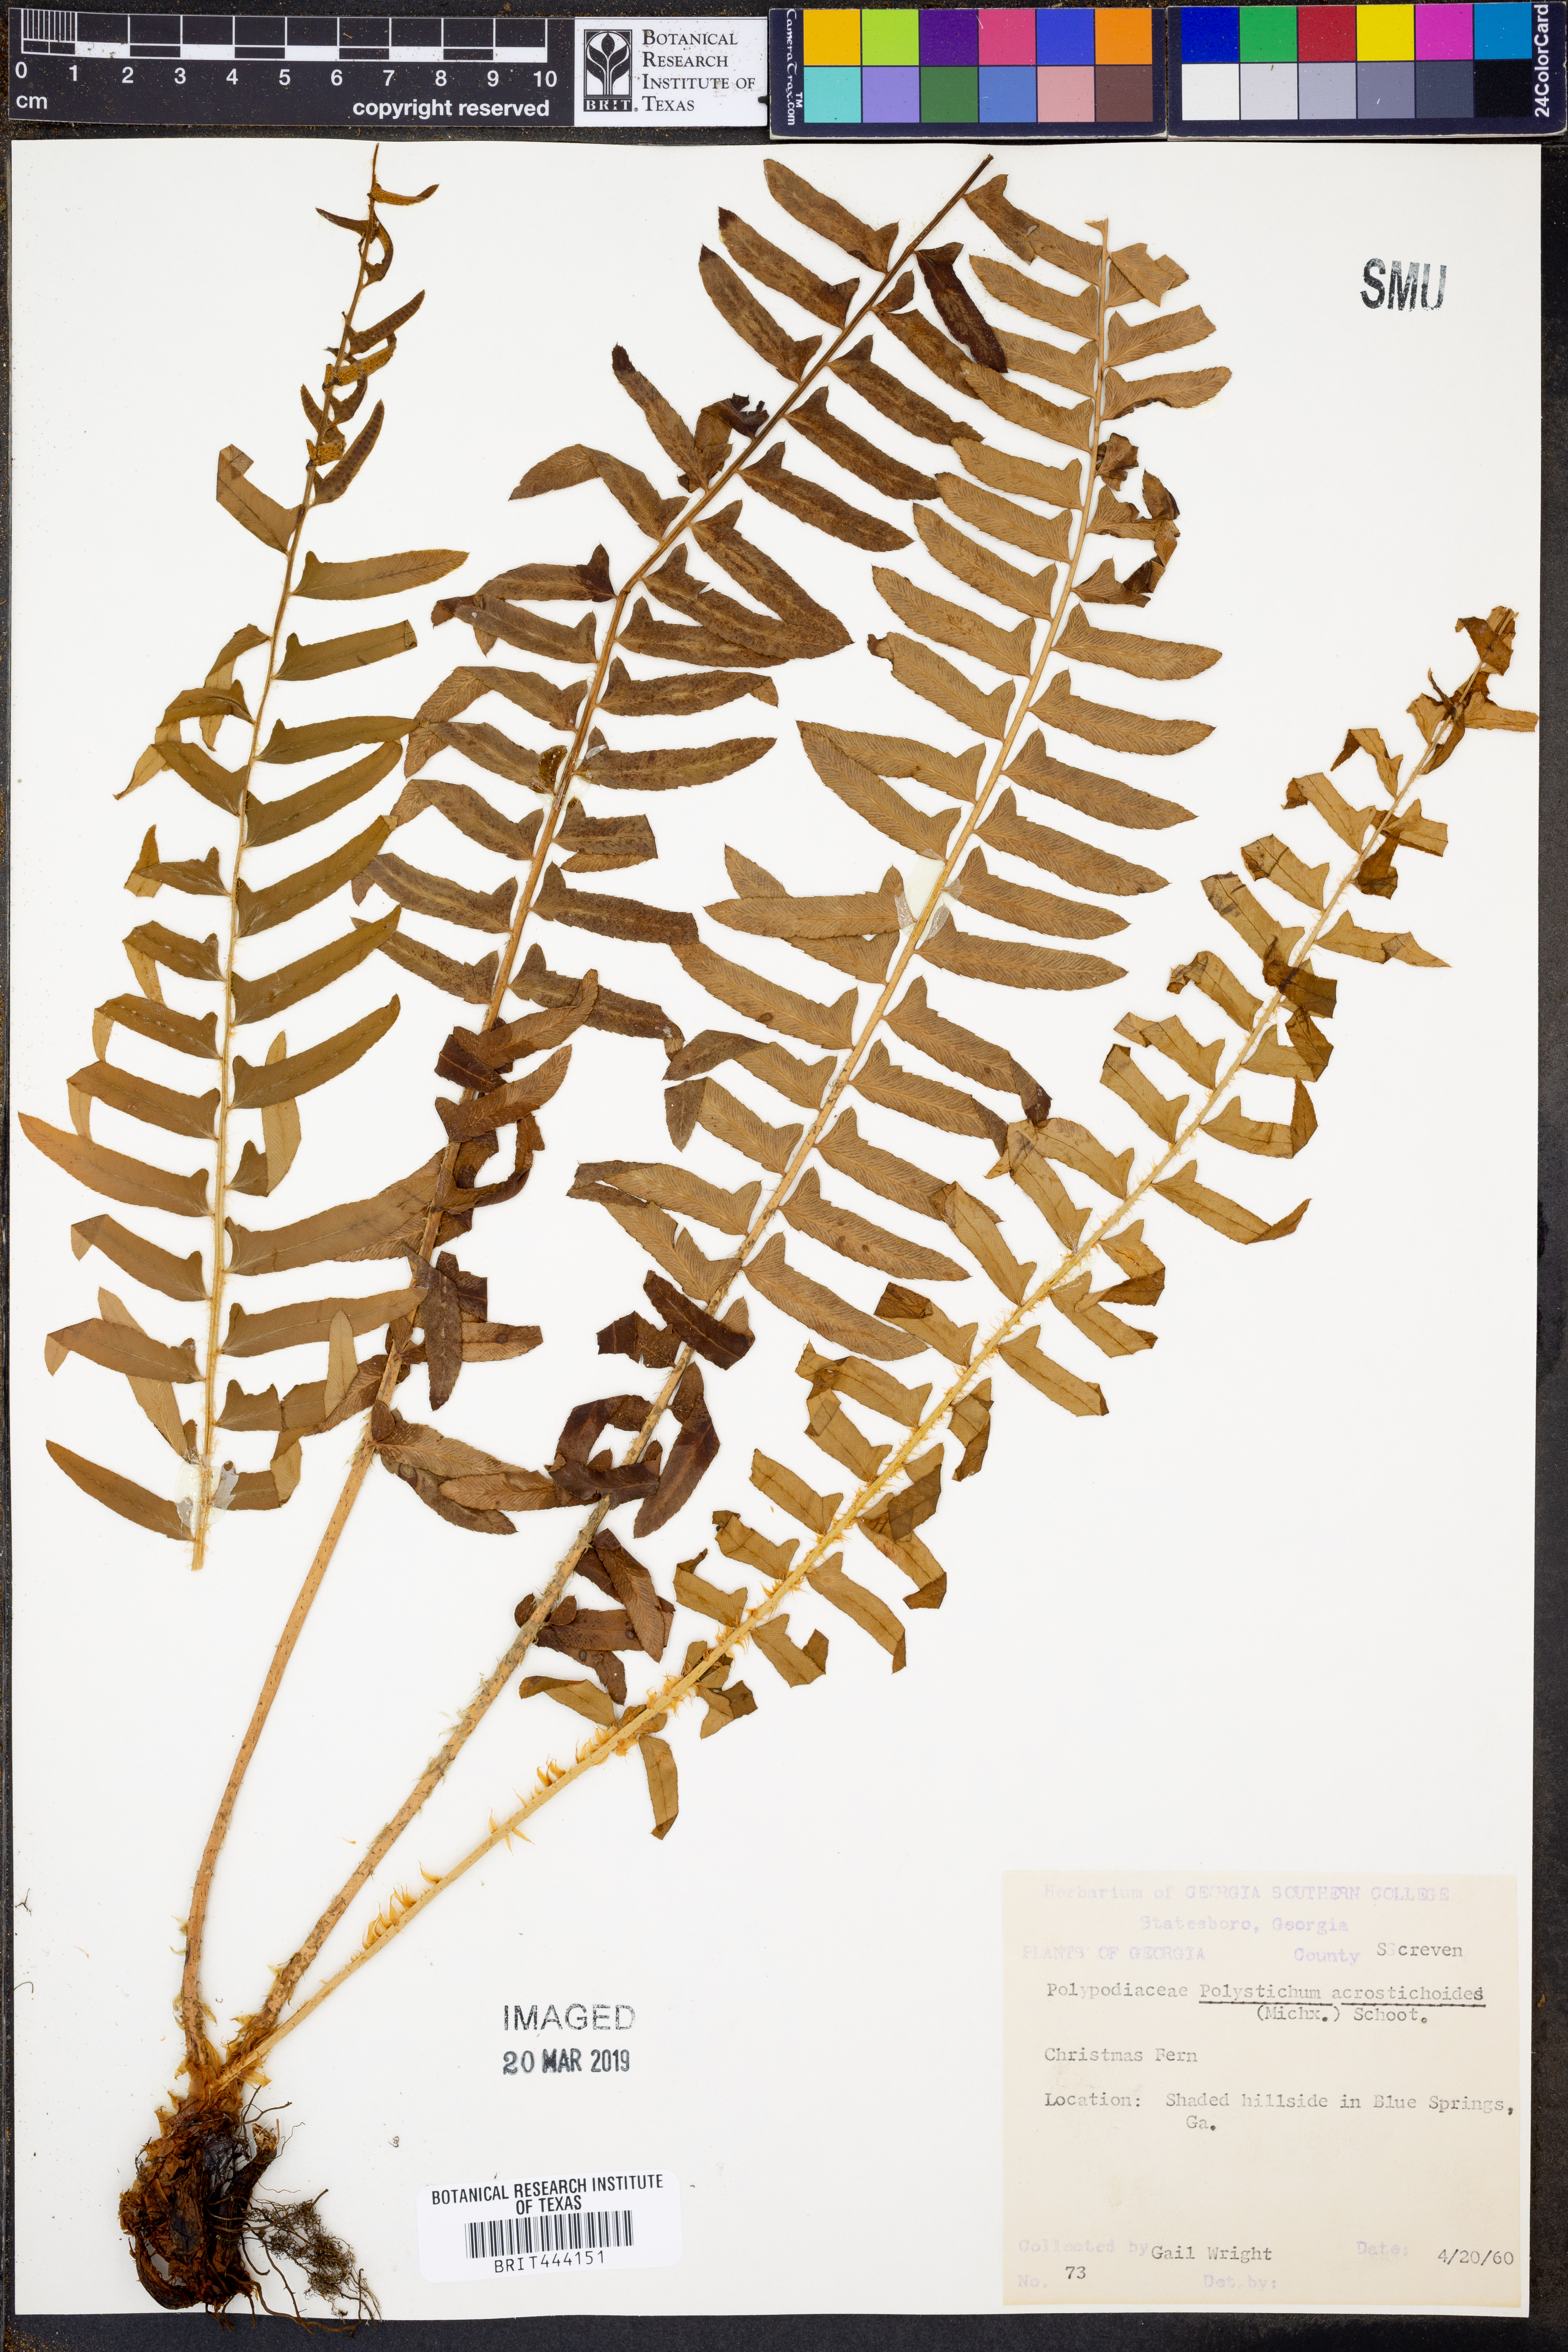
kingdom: Plantae
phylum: Tracheophyta
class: Polypodiopsida
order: Polypodiales
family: Dryopteridaceae
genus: Polystichum
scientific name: Polystichum acrostichoides
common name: Christmas fern
